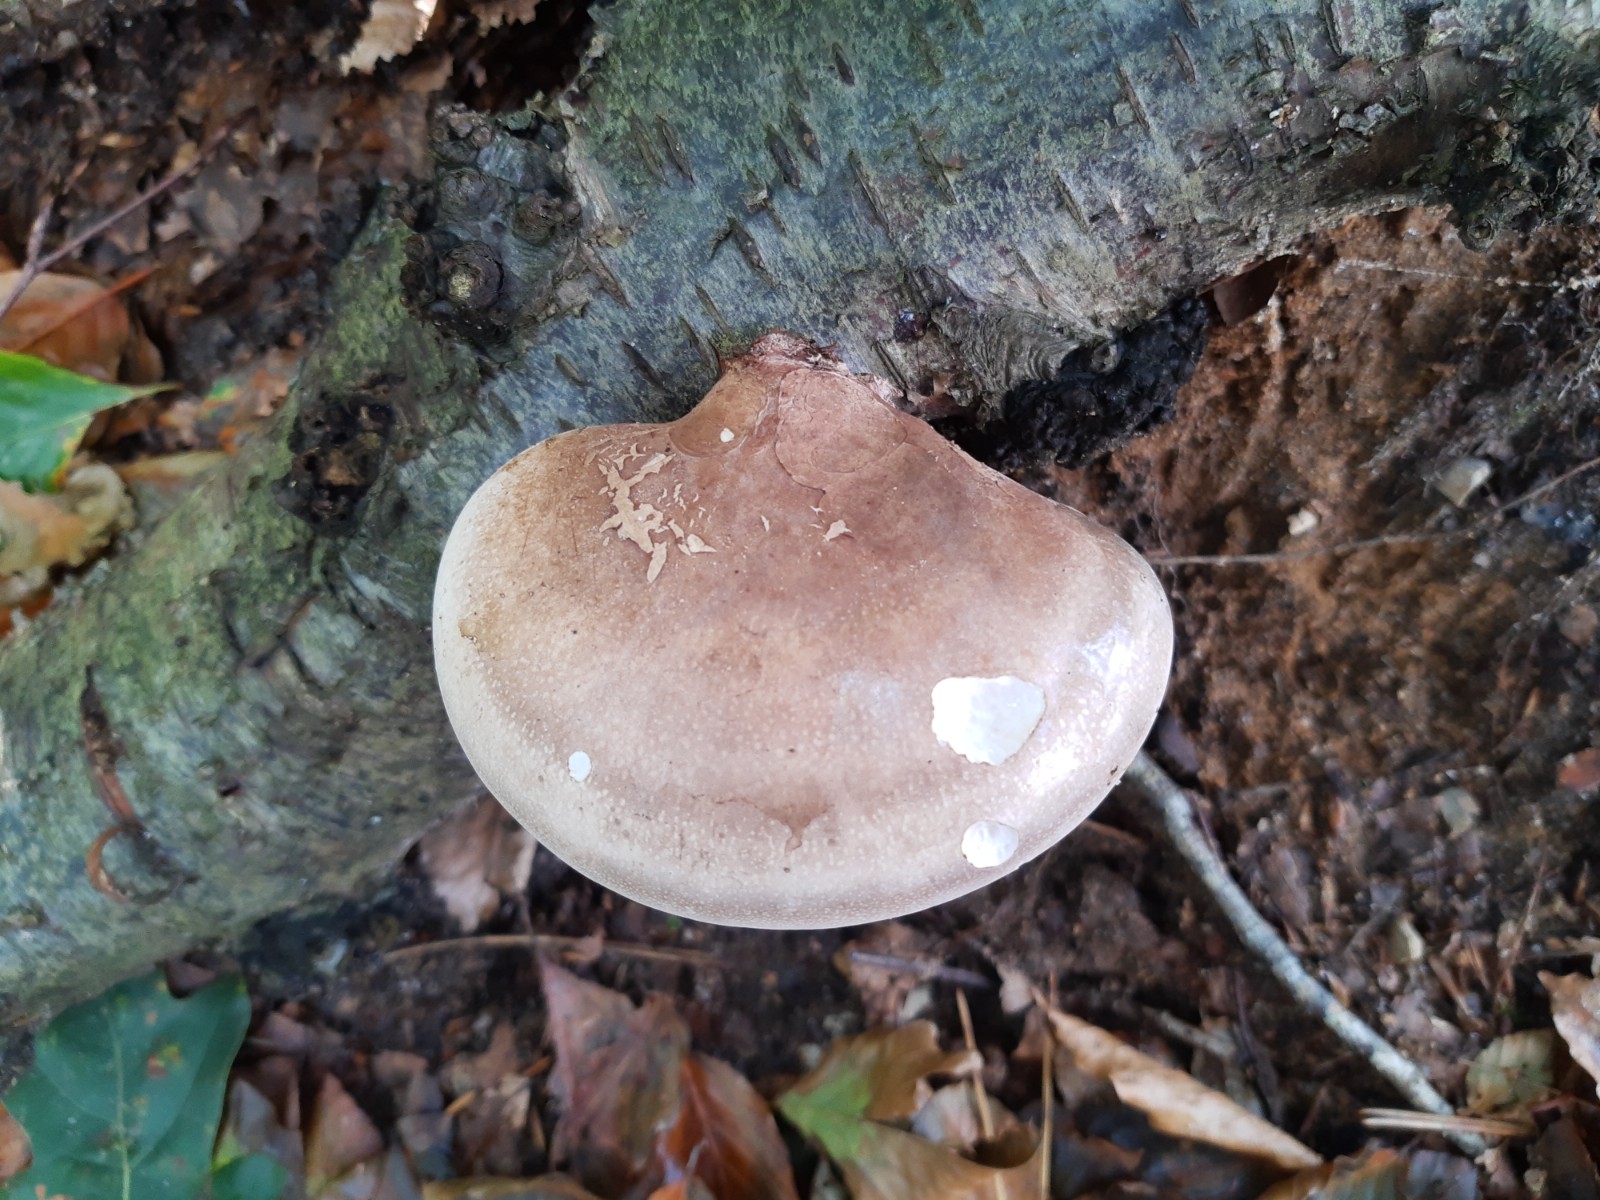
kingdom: Fungi
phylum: Basidiomycota
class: Agaricomycetes
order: Polyporales
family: Fomitopsidaceae
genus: Fomitopsis
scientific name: Fomitopsis betulina
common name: birkeporesvamp
